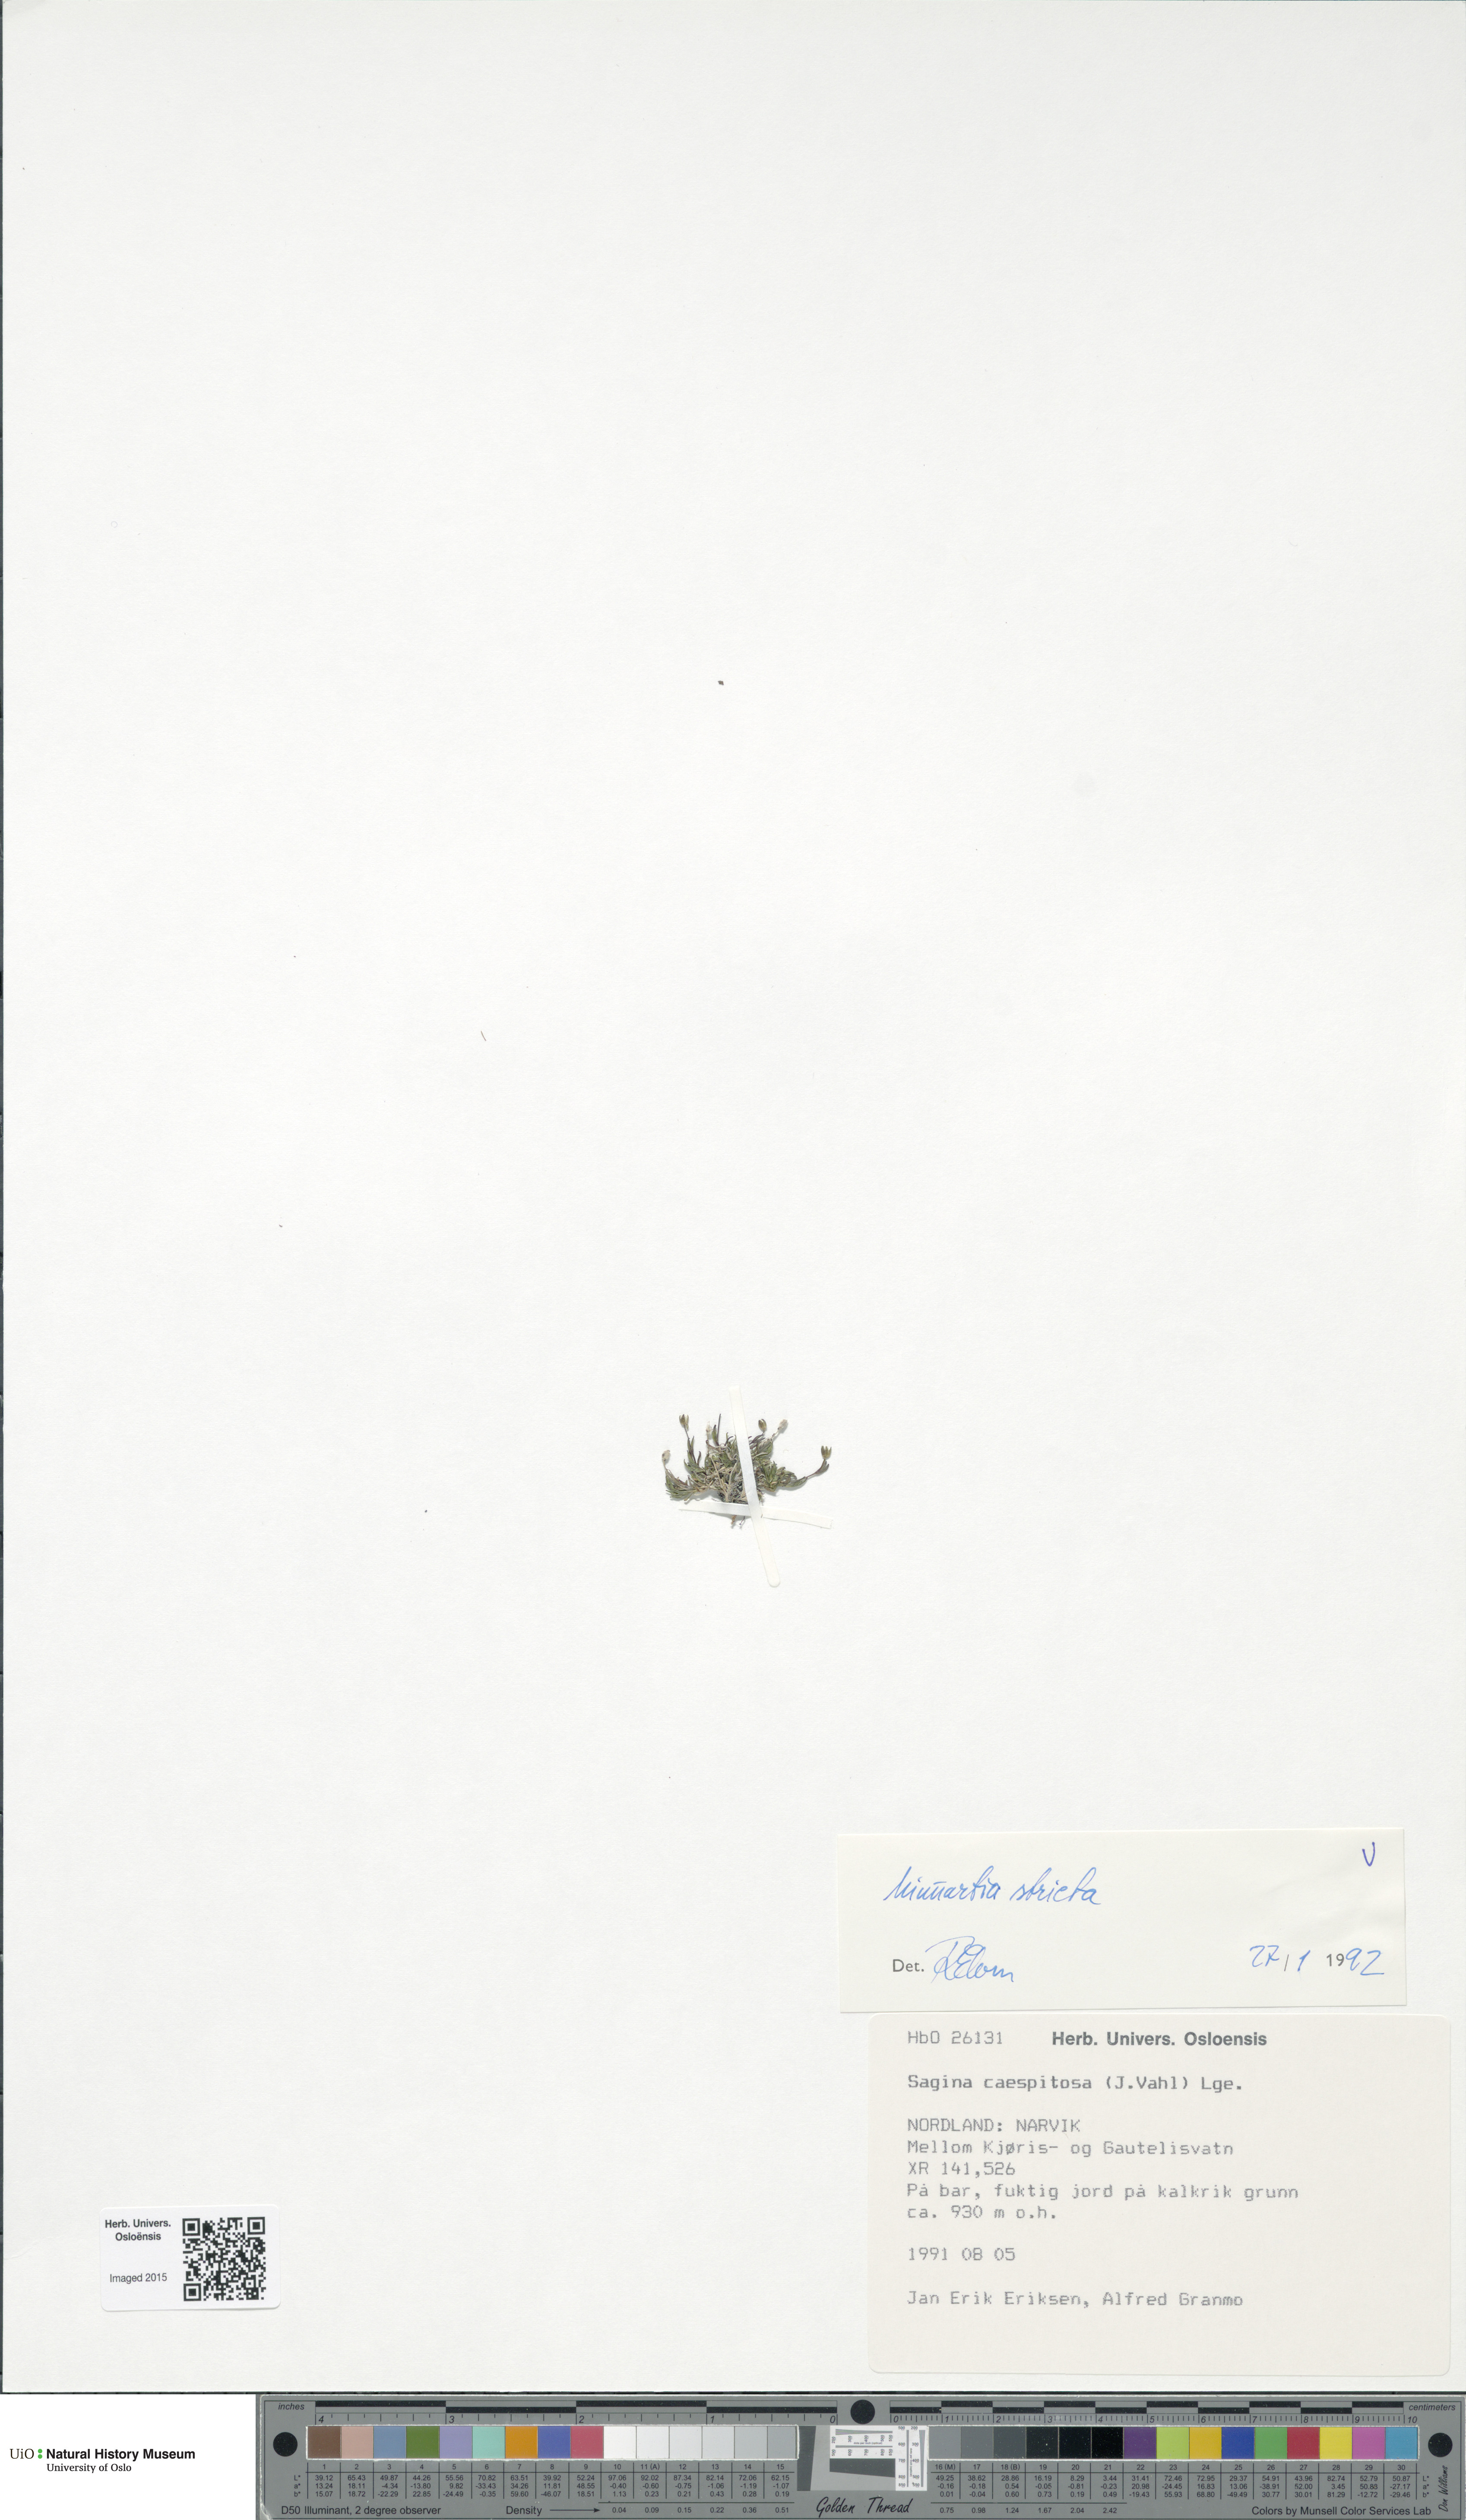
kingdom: Plantae
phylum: Tracheophyta
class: Magnoliopsida
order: Caryophyllales
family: Caryophyllaceae
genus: Sabulina
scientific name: Sabulina stricta
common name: Bog sandwort
